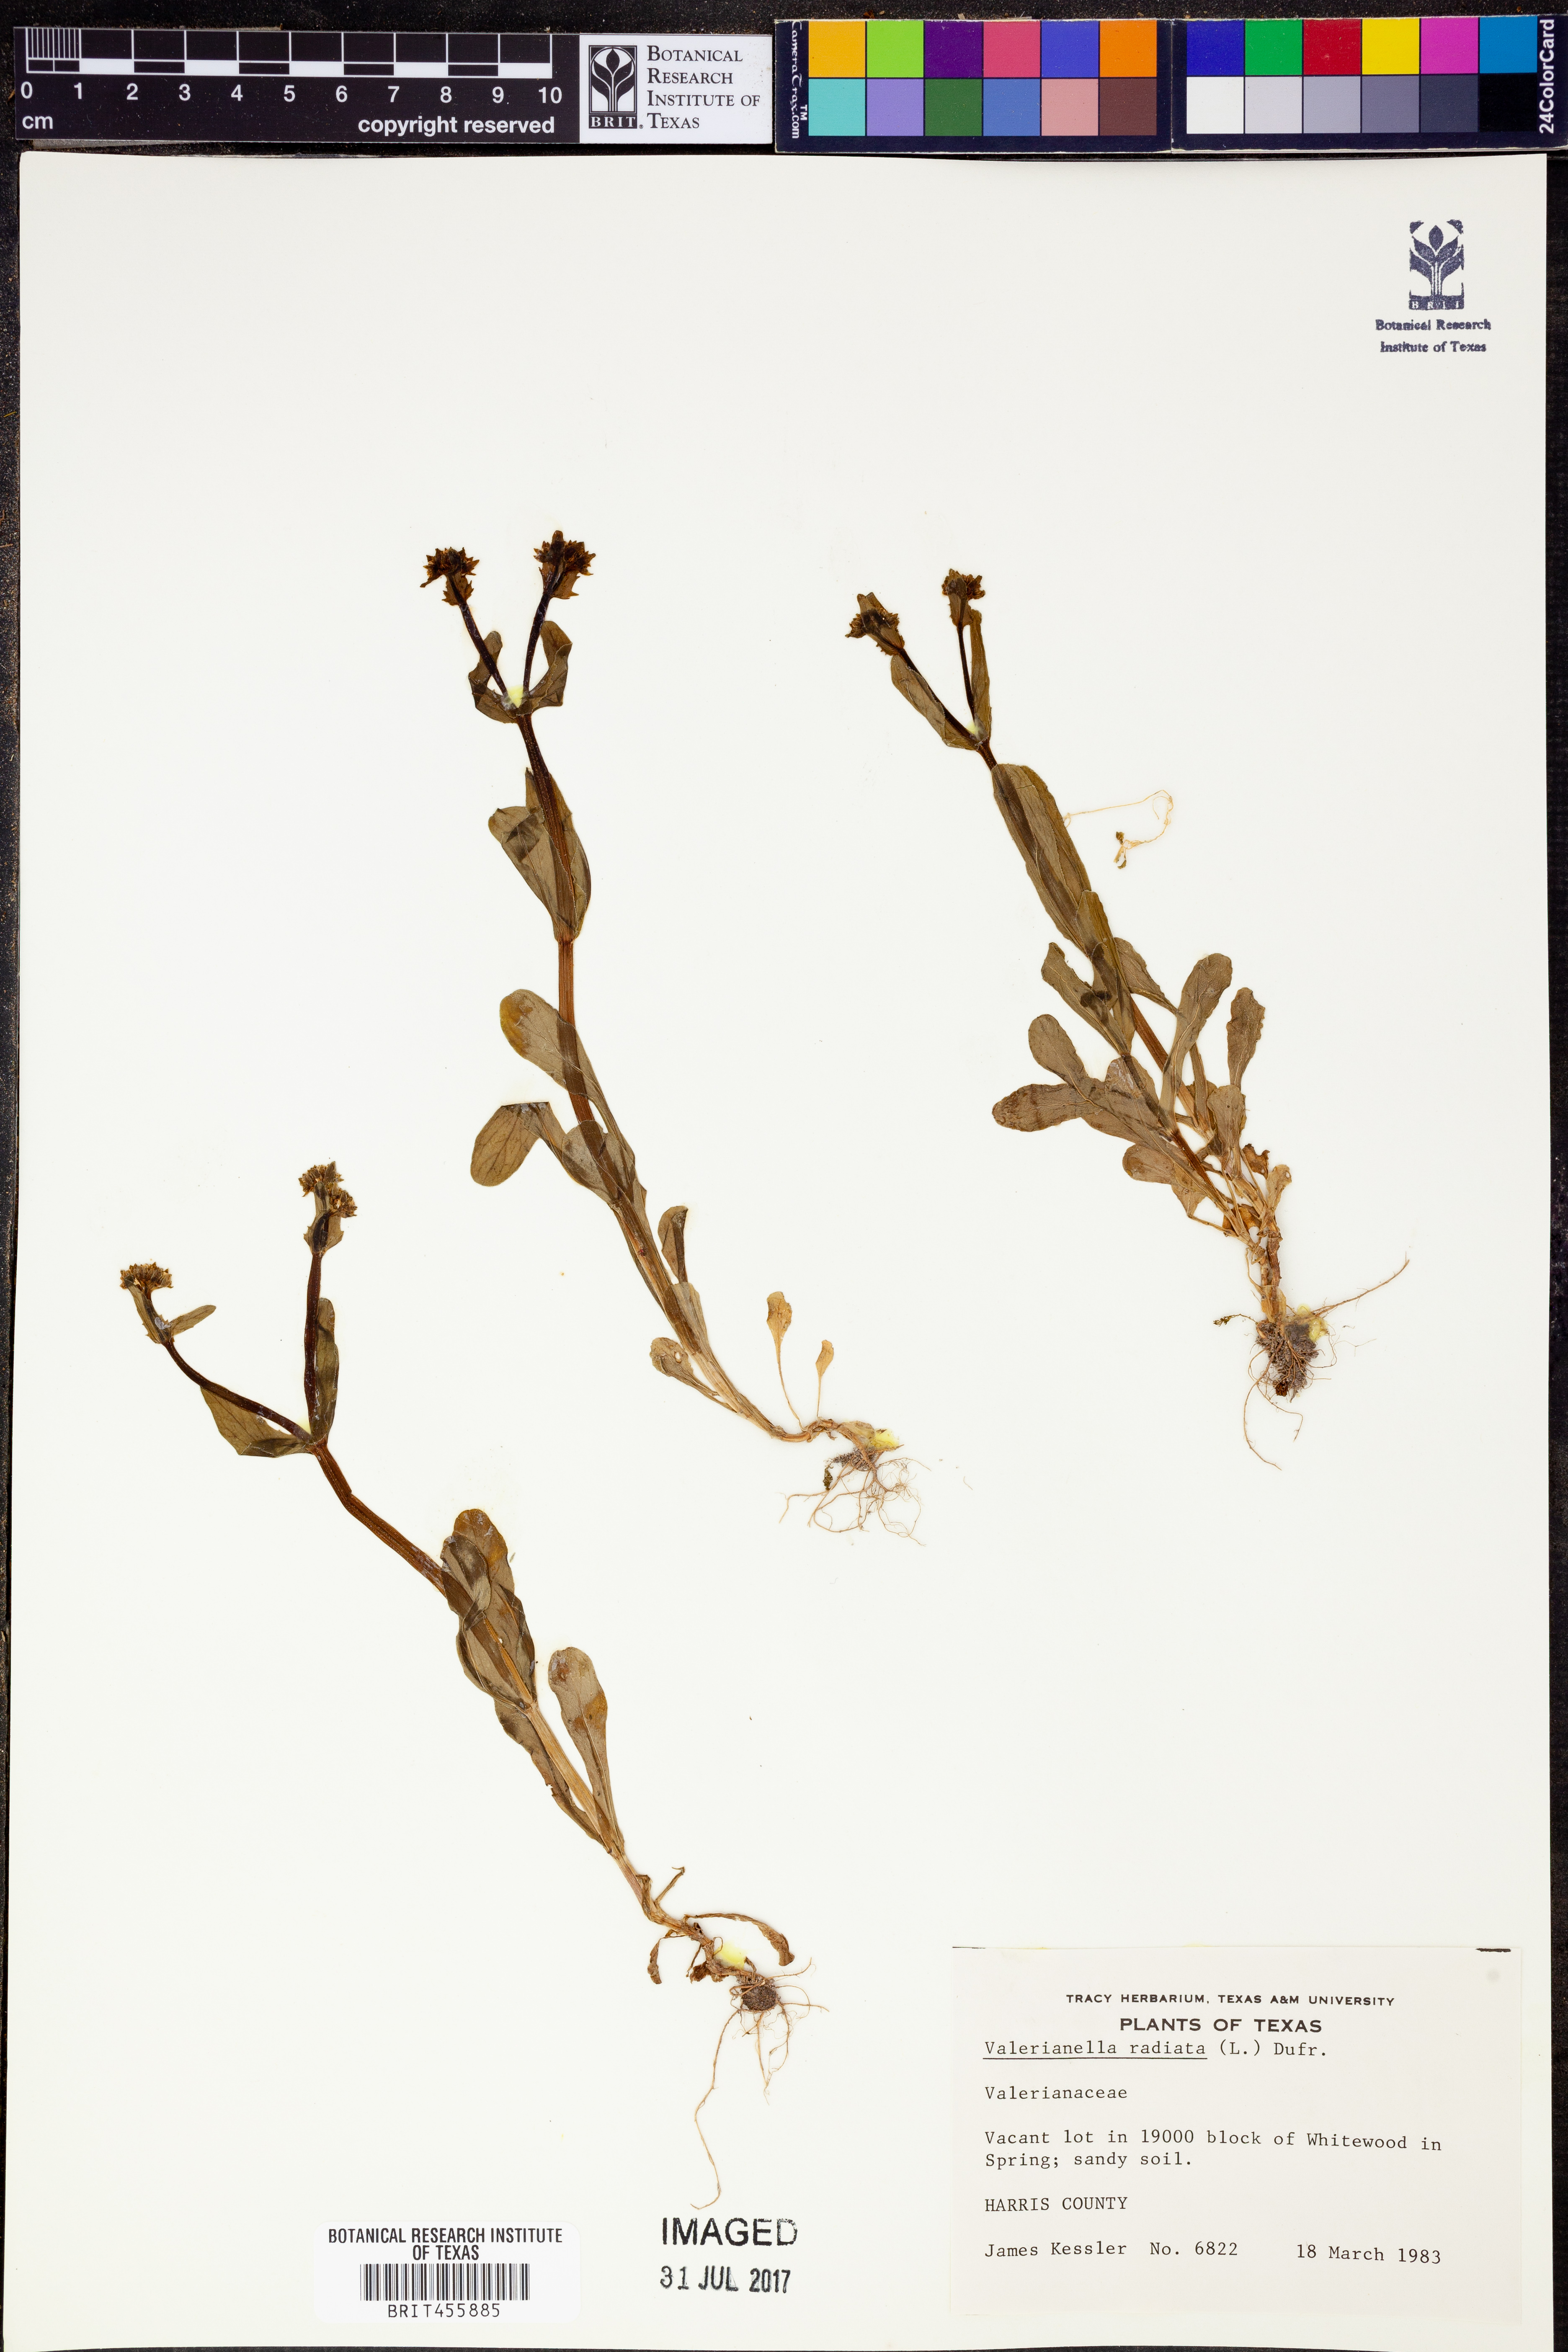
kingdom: Plantae
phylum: Tracheophyta
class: Magnoliopsida
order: Dipsacales
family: Caprifoliaceae
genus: Valerianella
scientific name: Valerianella radiata
